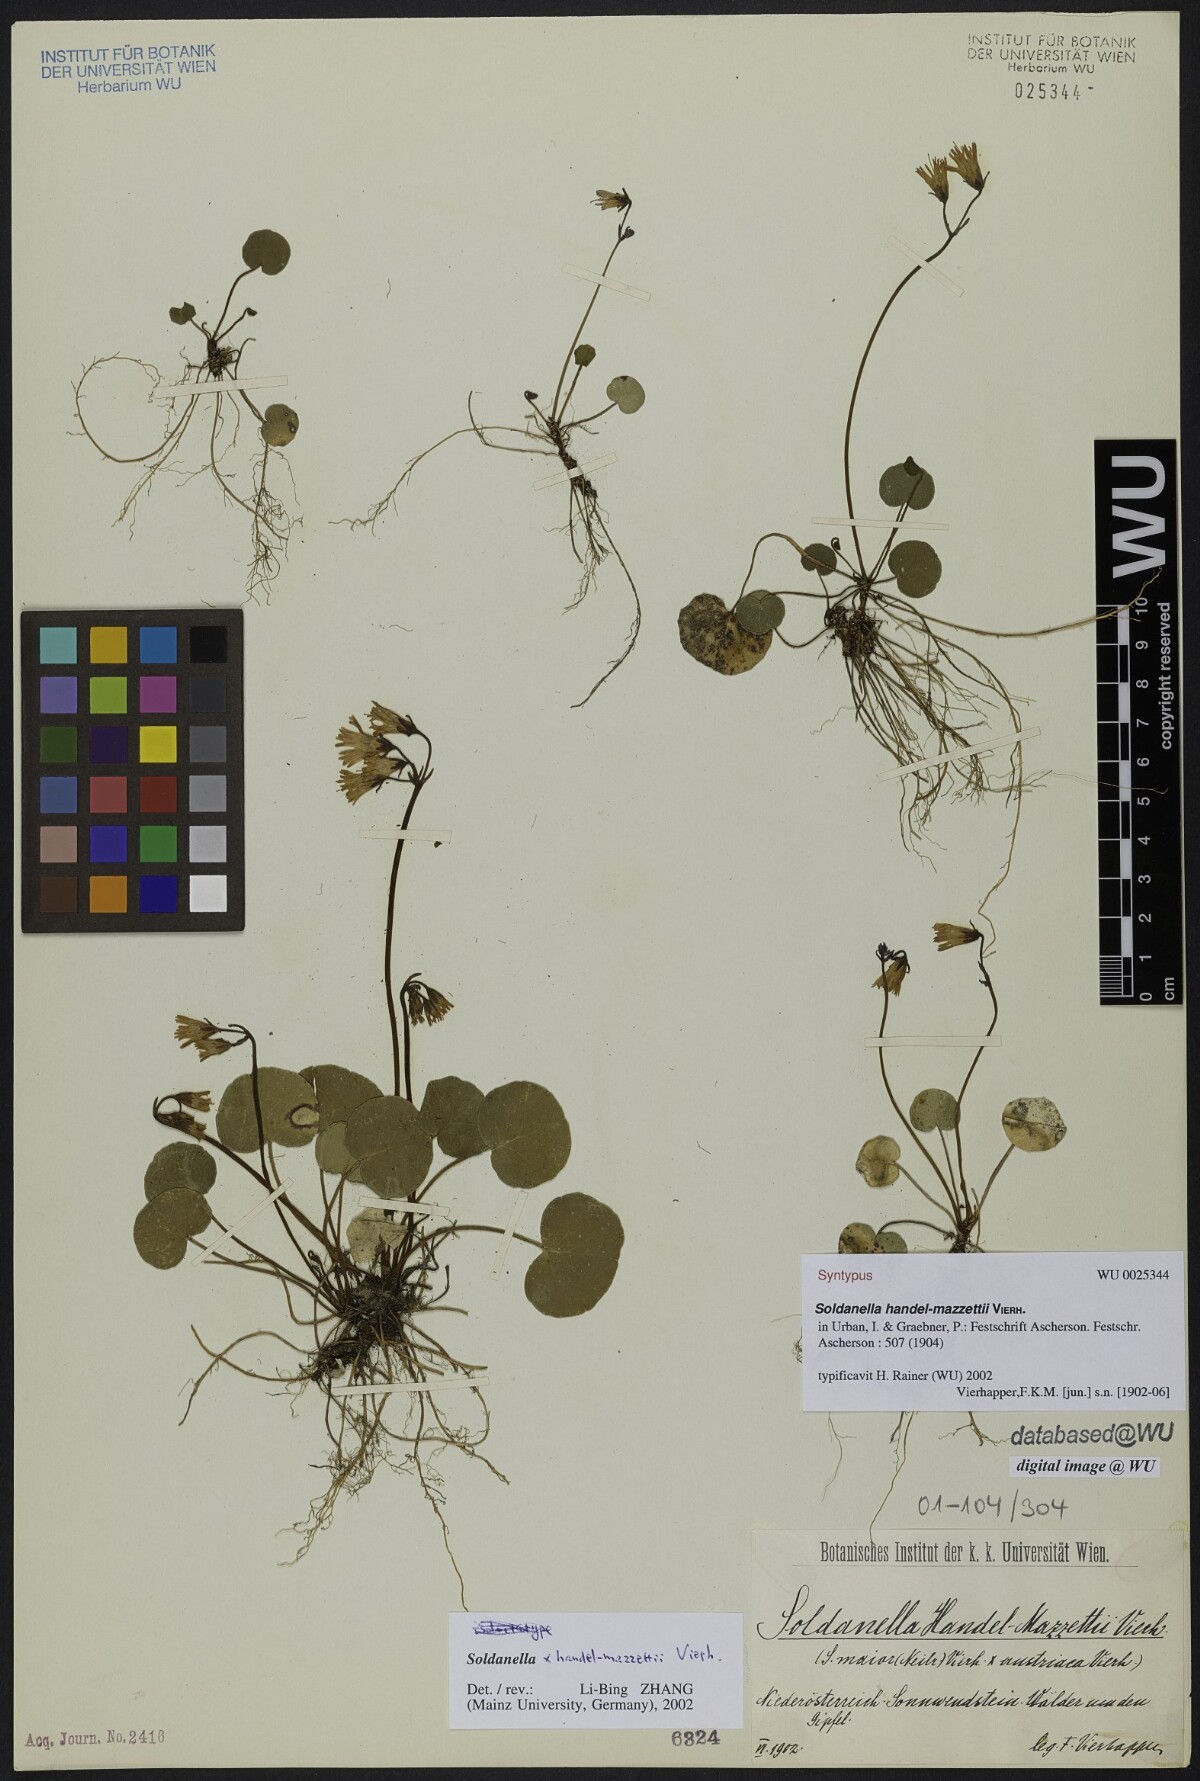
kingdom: Plantae
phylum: Tracheophyta
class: Magnoliopsida
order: Ericales
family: Primulaceae
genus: Soldanella
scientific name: Soldanella handel-mazzettii
